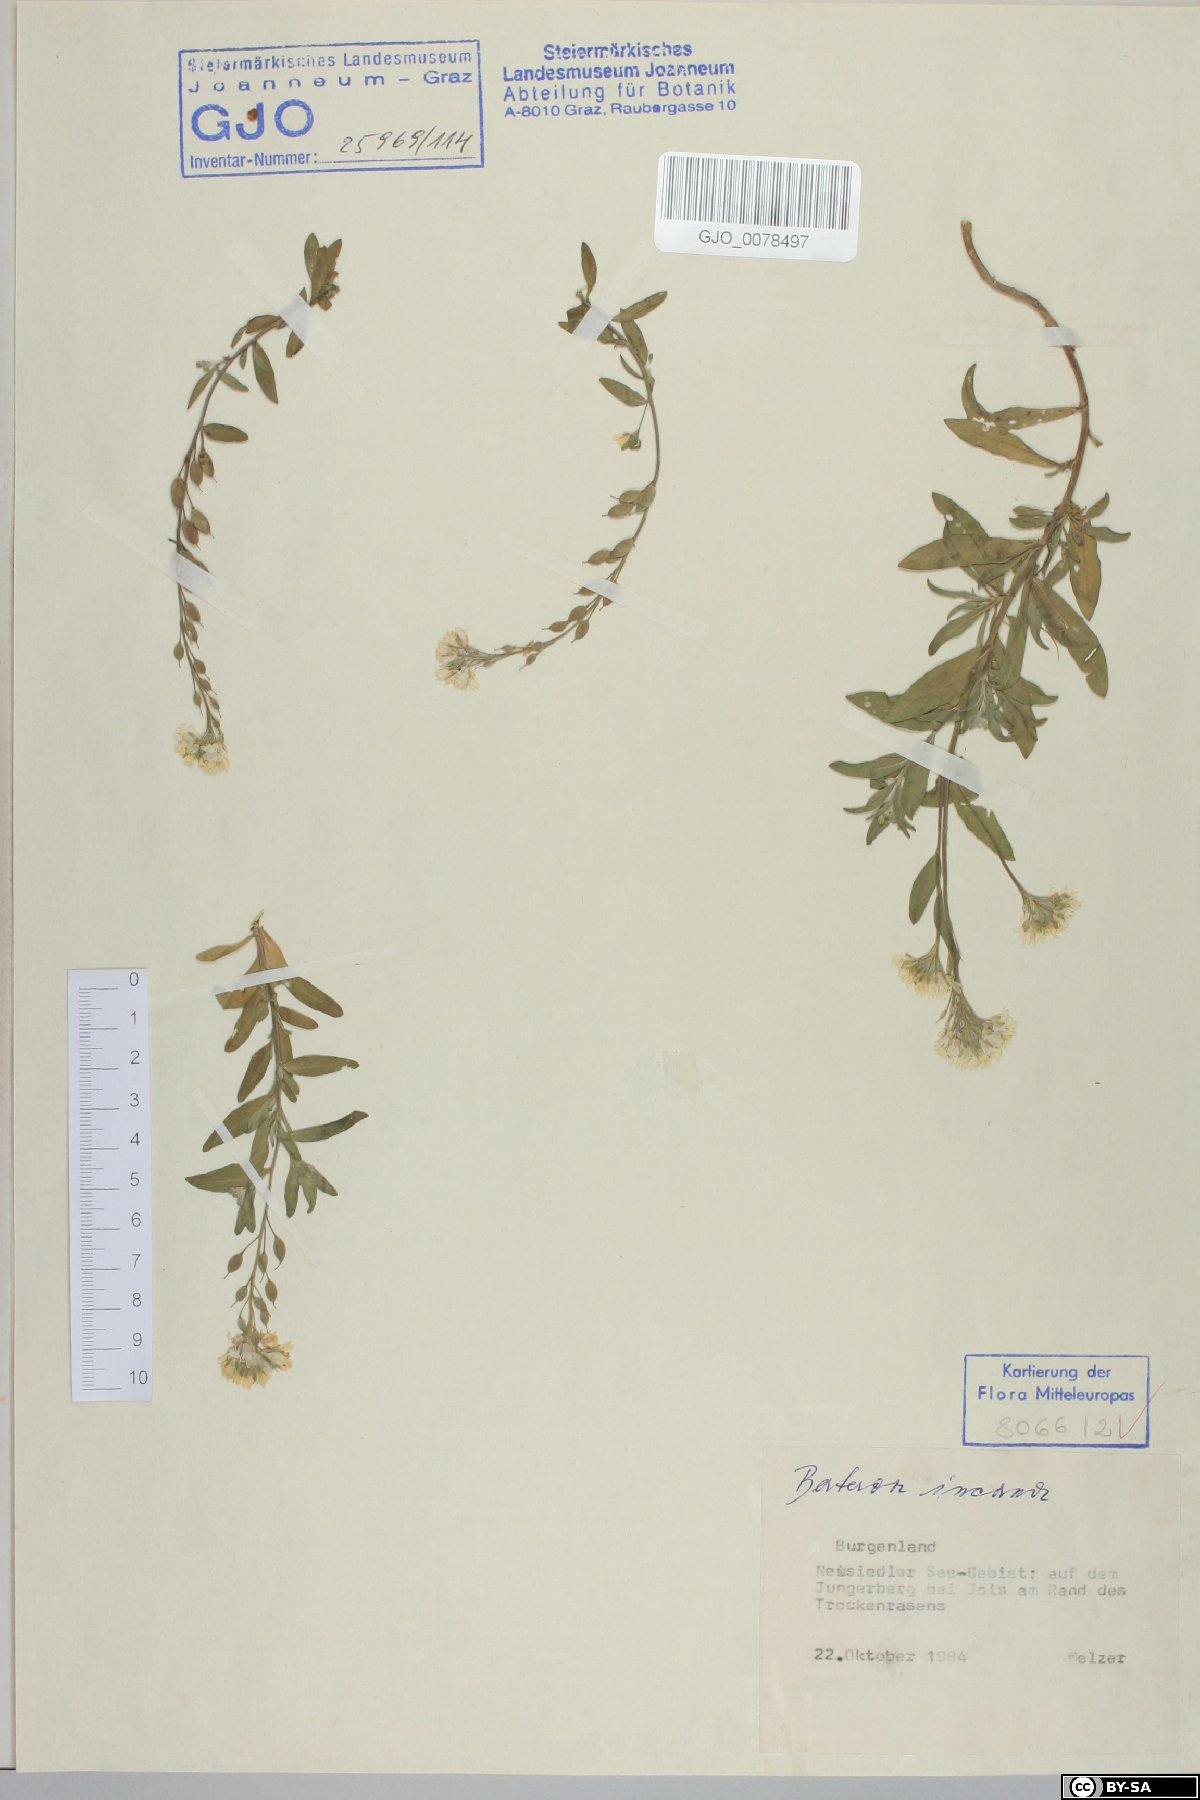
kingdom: Plantae
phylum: Tracheophyta
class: Magnoliopsida
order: Brassicales
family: Brassicaceae
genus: Berteroa
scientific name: Berteroa incana
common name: Hoary alison
